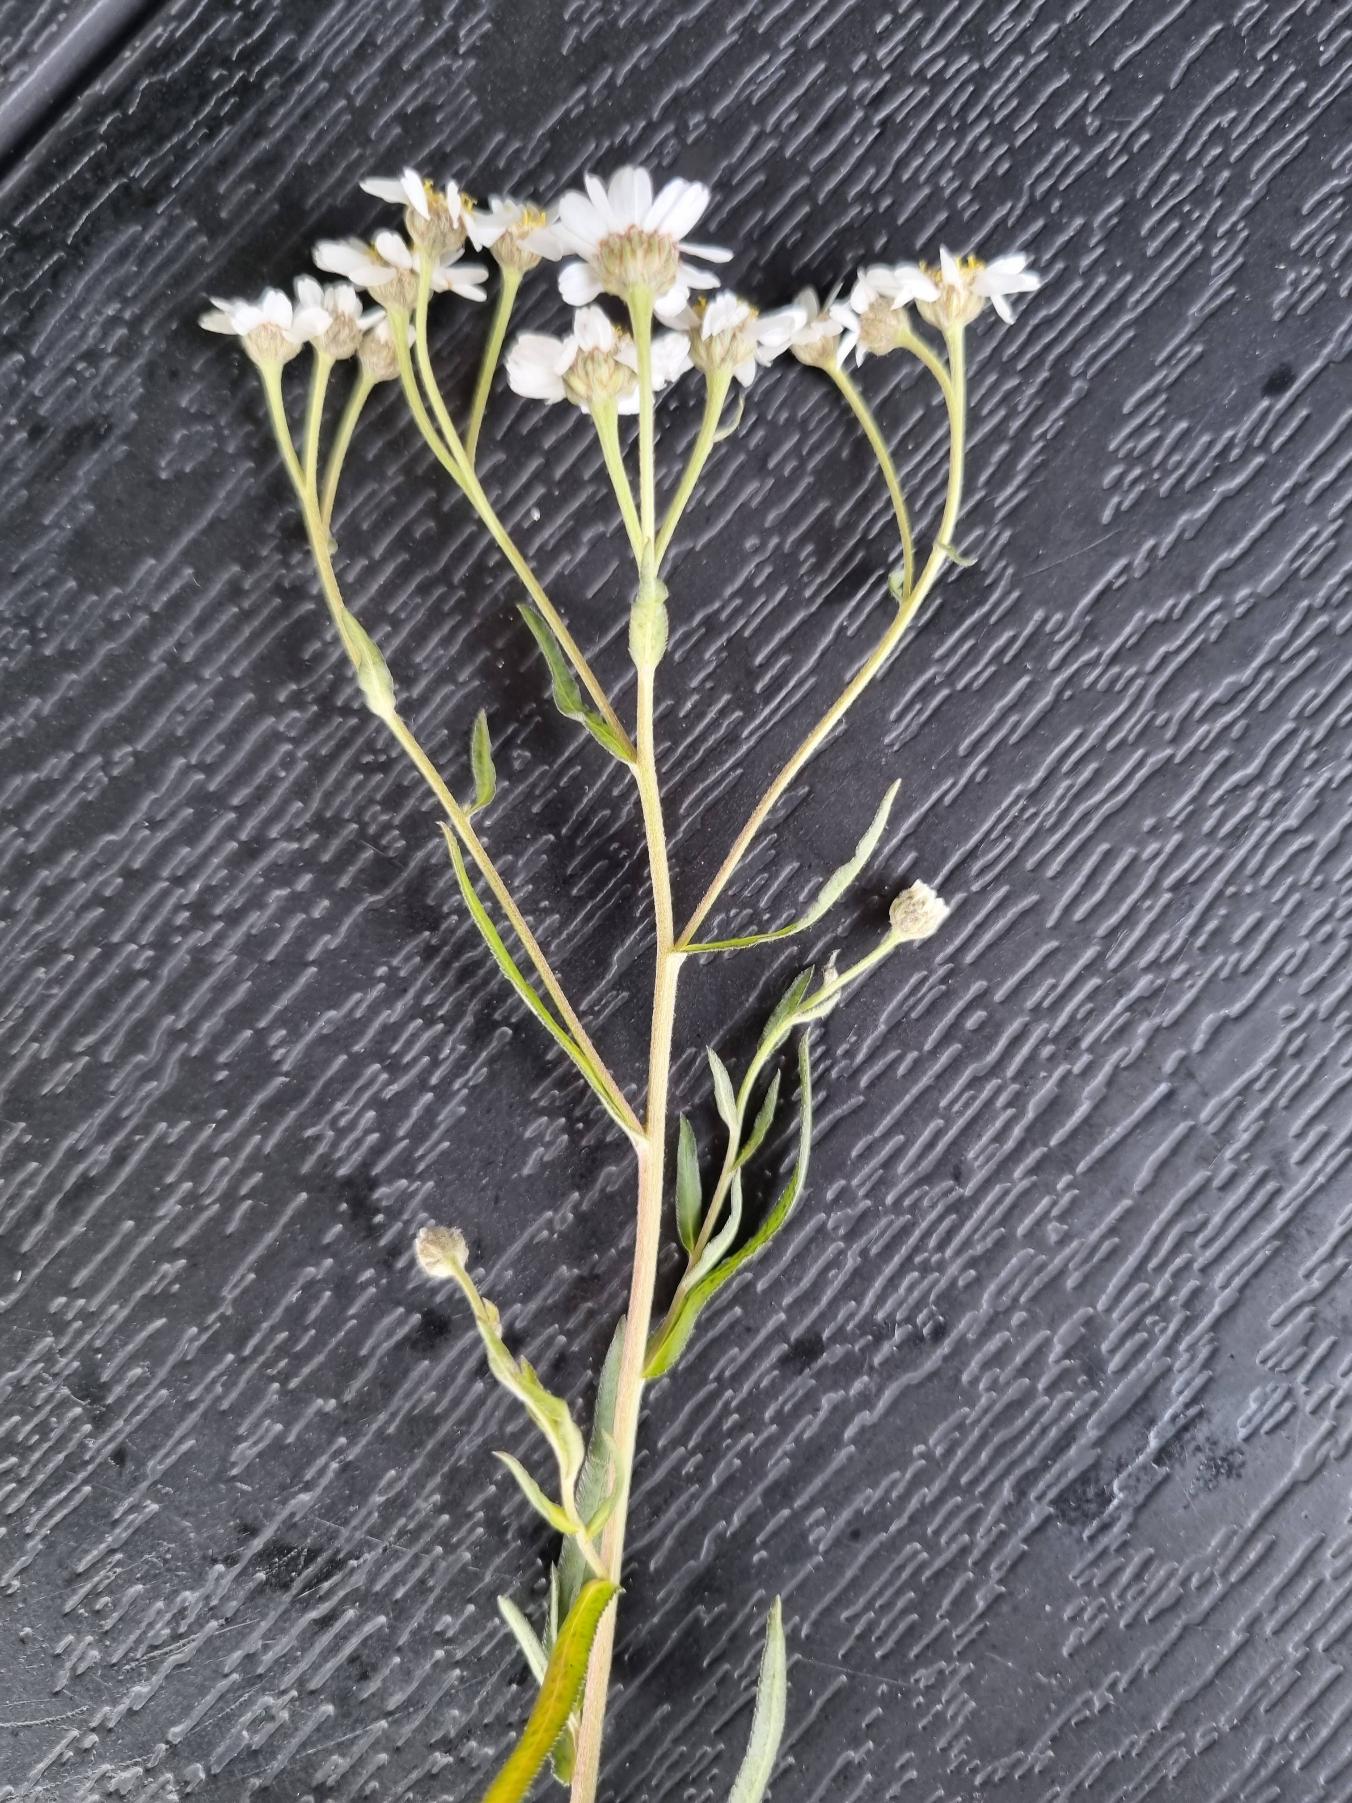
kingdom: Plantae
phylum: Tracheophyta
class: Magnoliopsida
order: Asterales
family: Asteraceae
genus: Achillea
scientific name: Achillea ptarmica
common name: Nyse-røllike
